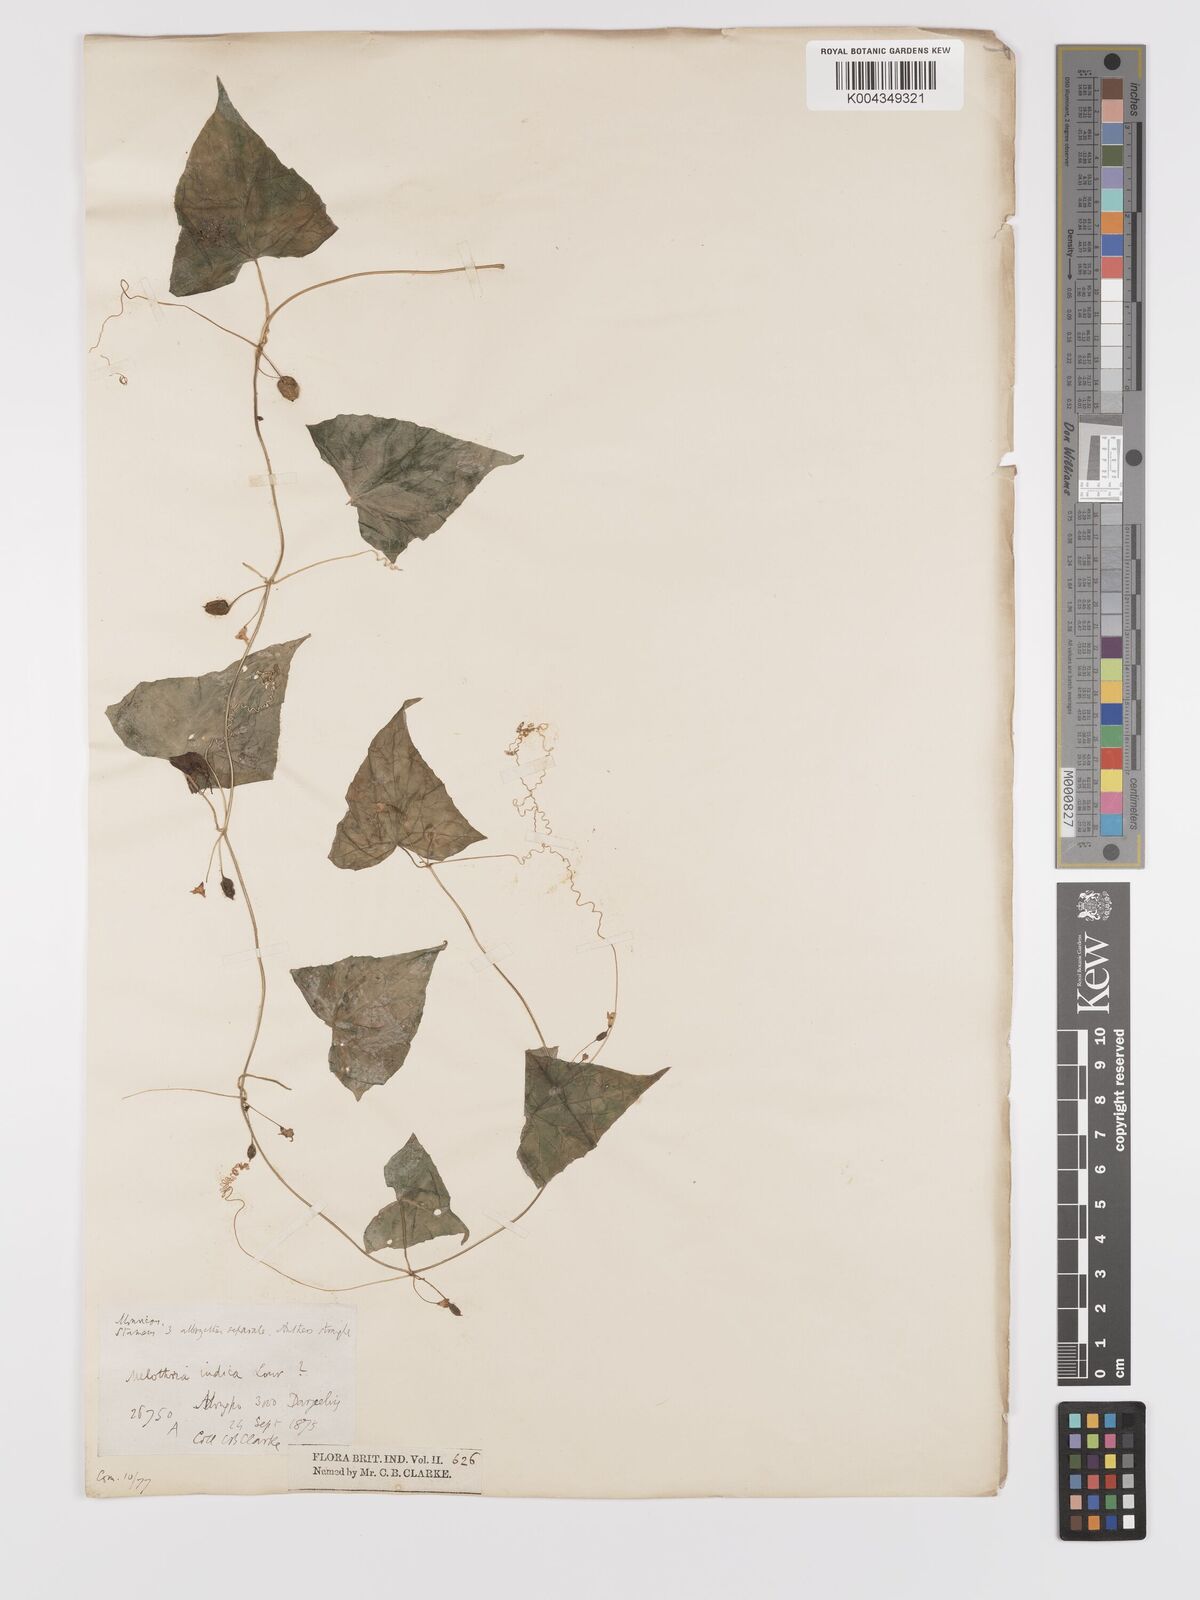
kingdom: Plantae
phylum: Tracheophyta
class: Magnoliopsida
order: Cucurbitales
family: Cucurbitaceae
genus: Zehneria
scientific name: Zehneria odorata
